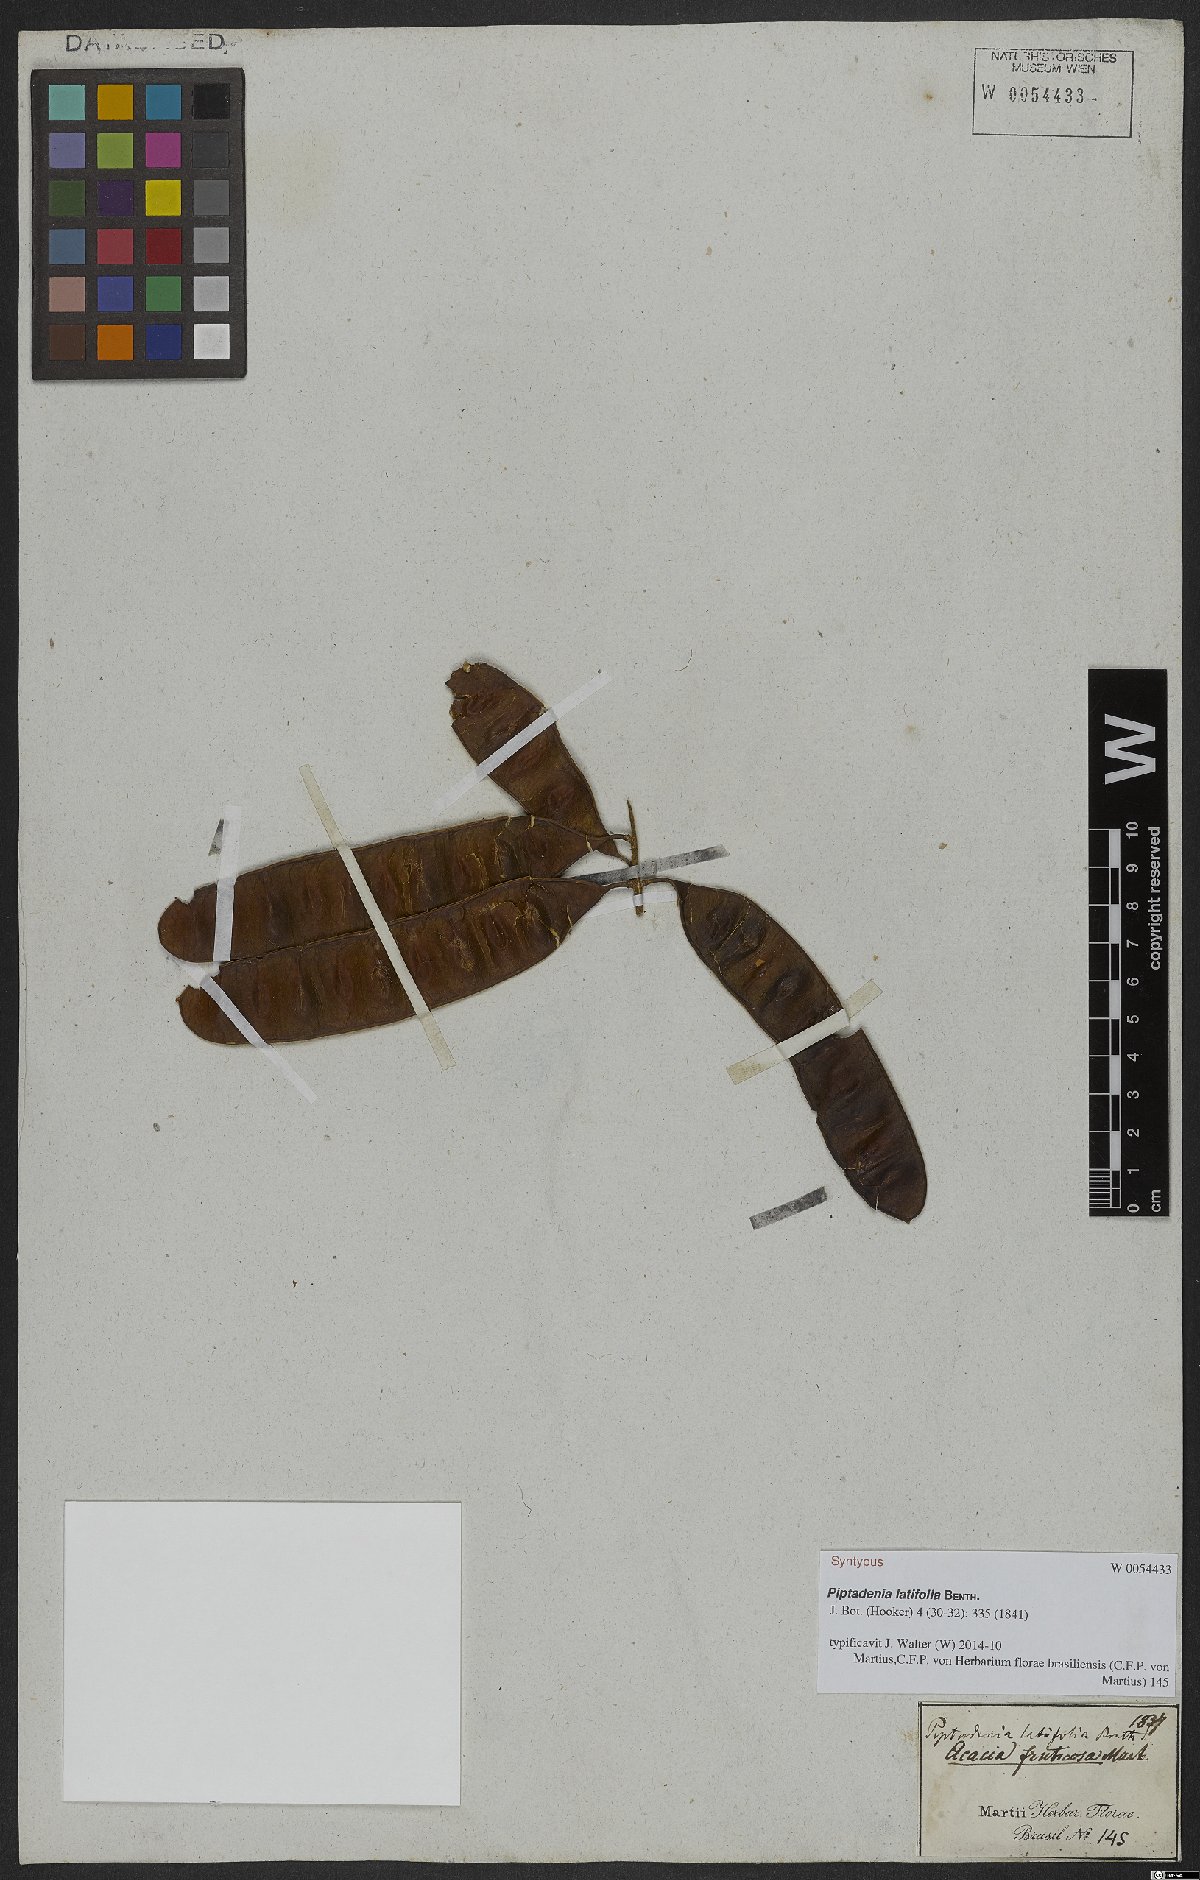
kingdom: Plantae
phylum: Tracheophyta
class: Magnoliopsida
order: Fabales
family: Fabaceae
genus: Piptadenia
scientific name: Piptadenia adiantoides
